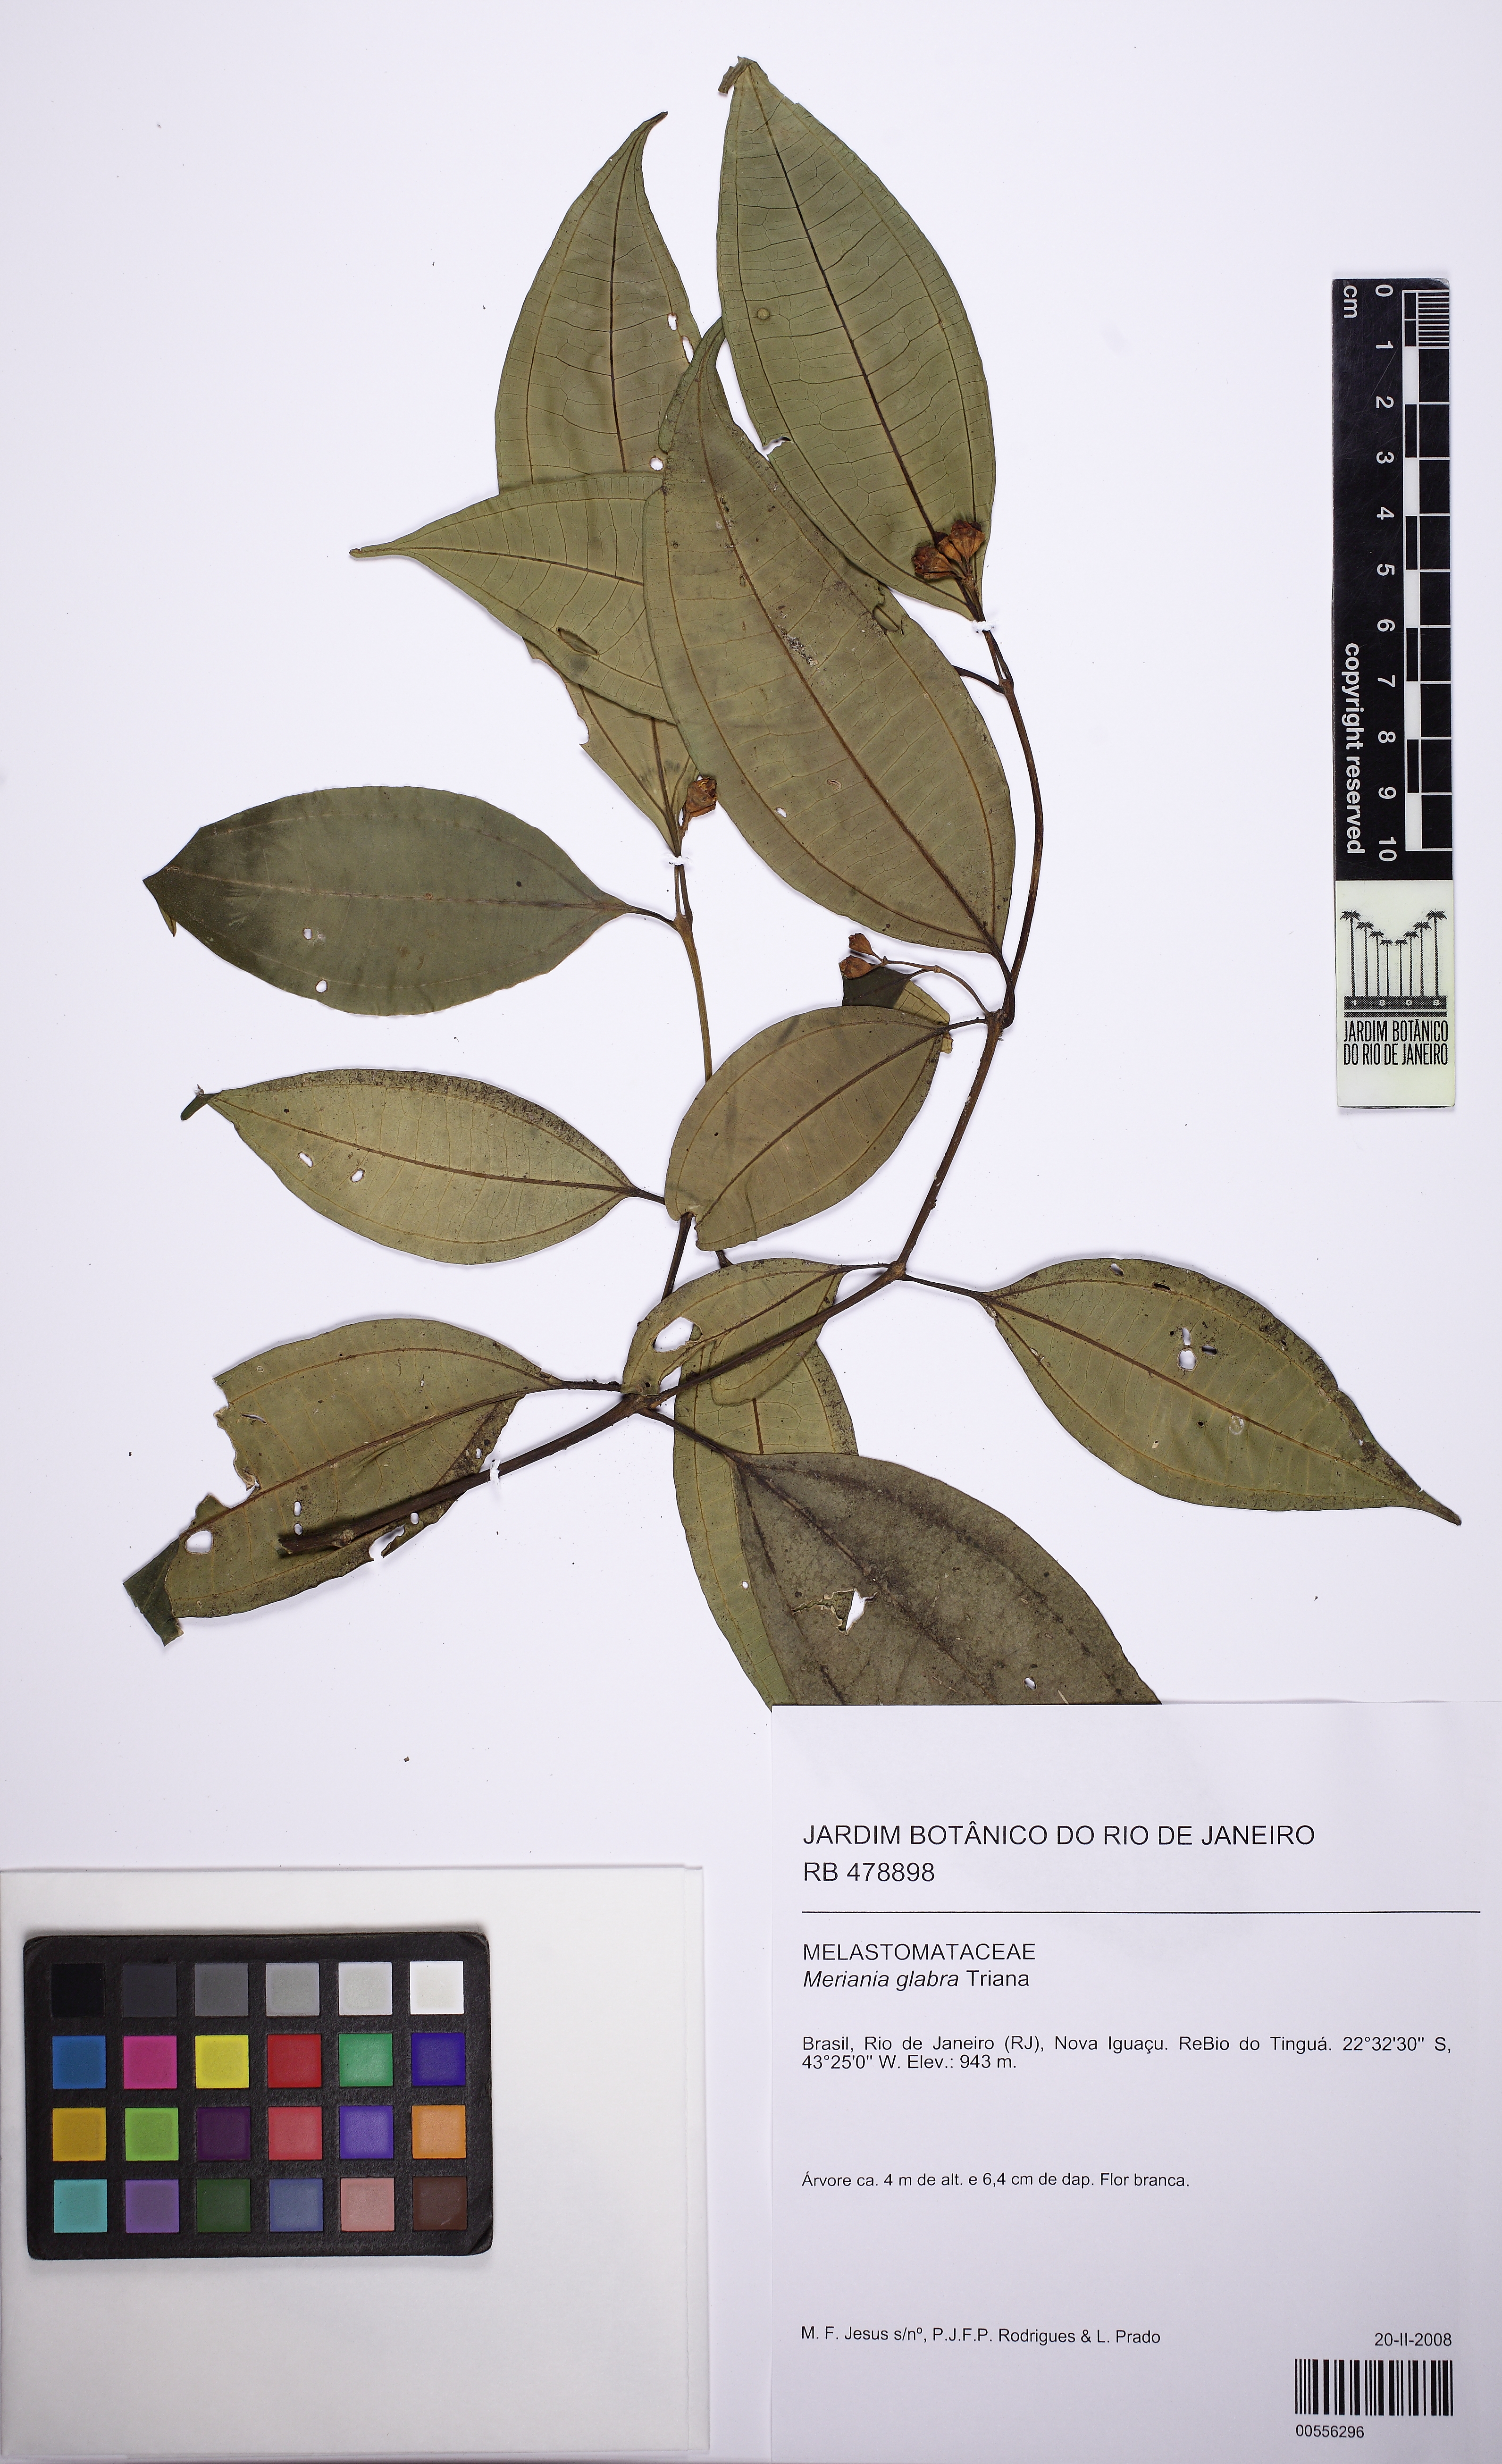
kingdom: Plantae
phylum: Tracheophyta
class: Magnoliopsida
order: Myrtales
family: Melastomataceae
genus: Meriania
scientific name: Meriania glabra
